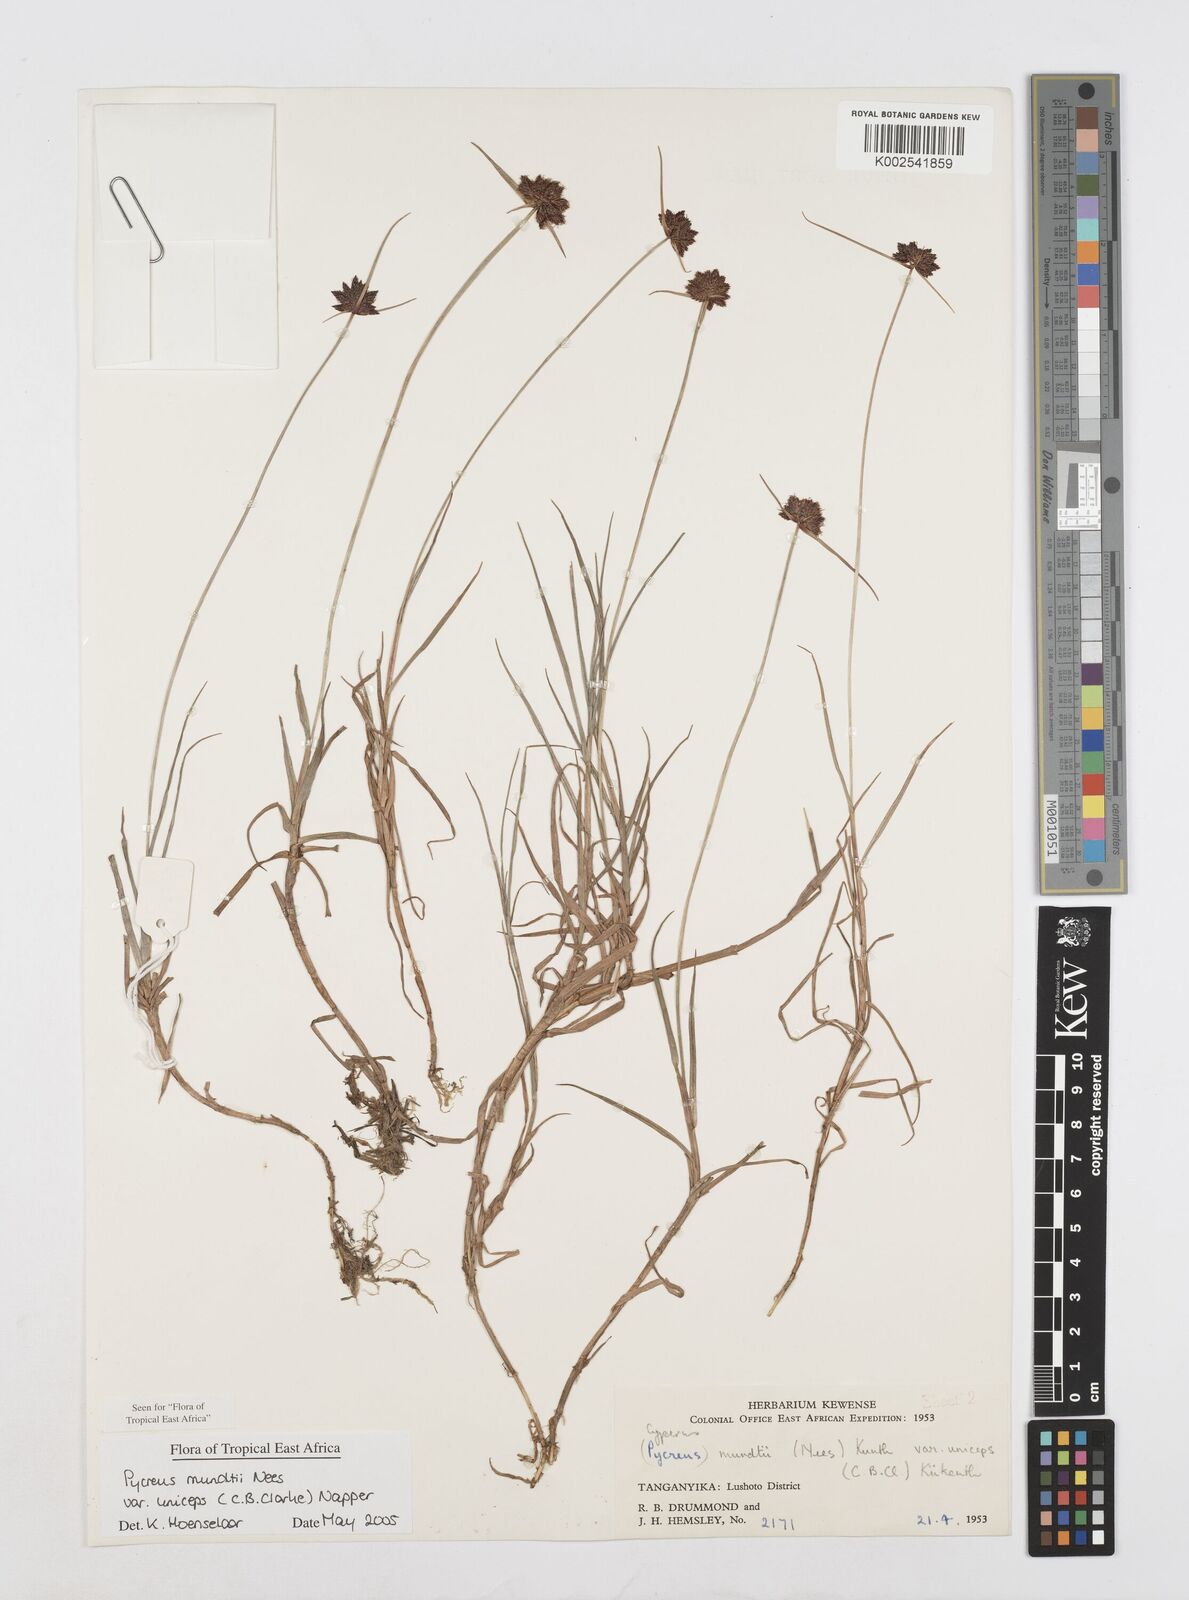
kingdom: Plantae
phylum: Tracheophyta
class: Liliopsida
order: Poales
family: Cyperaceae
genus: Cyperus
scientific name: Cyperus mundii
